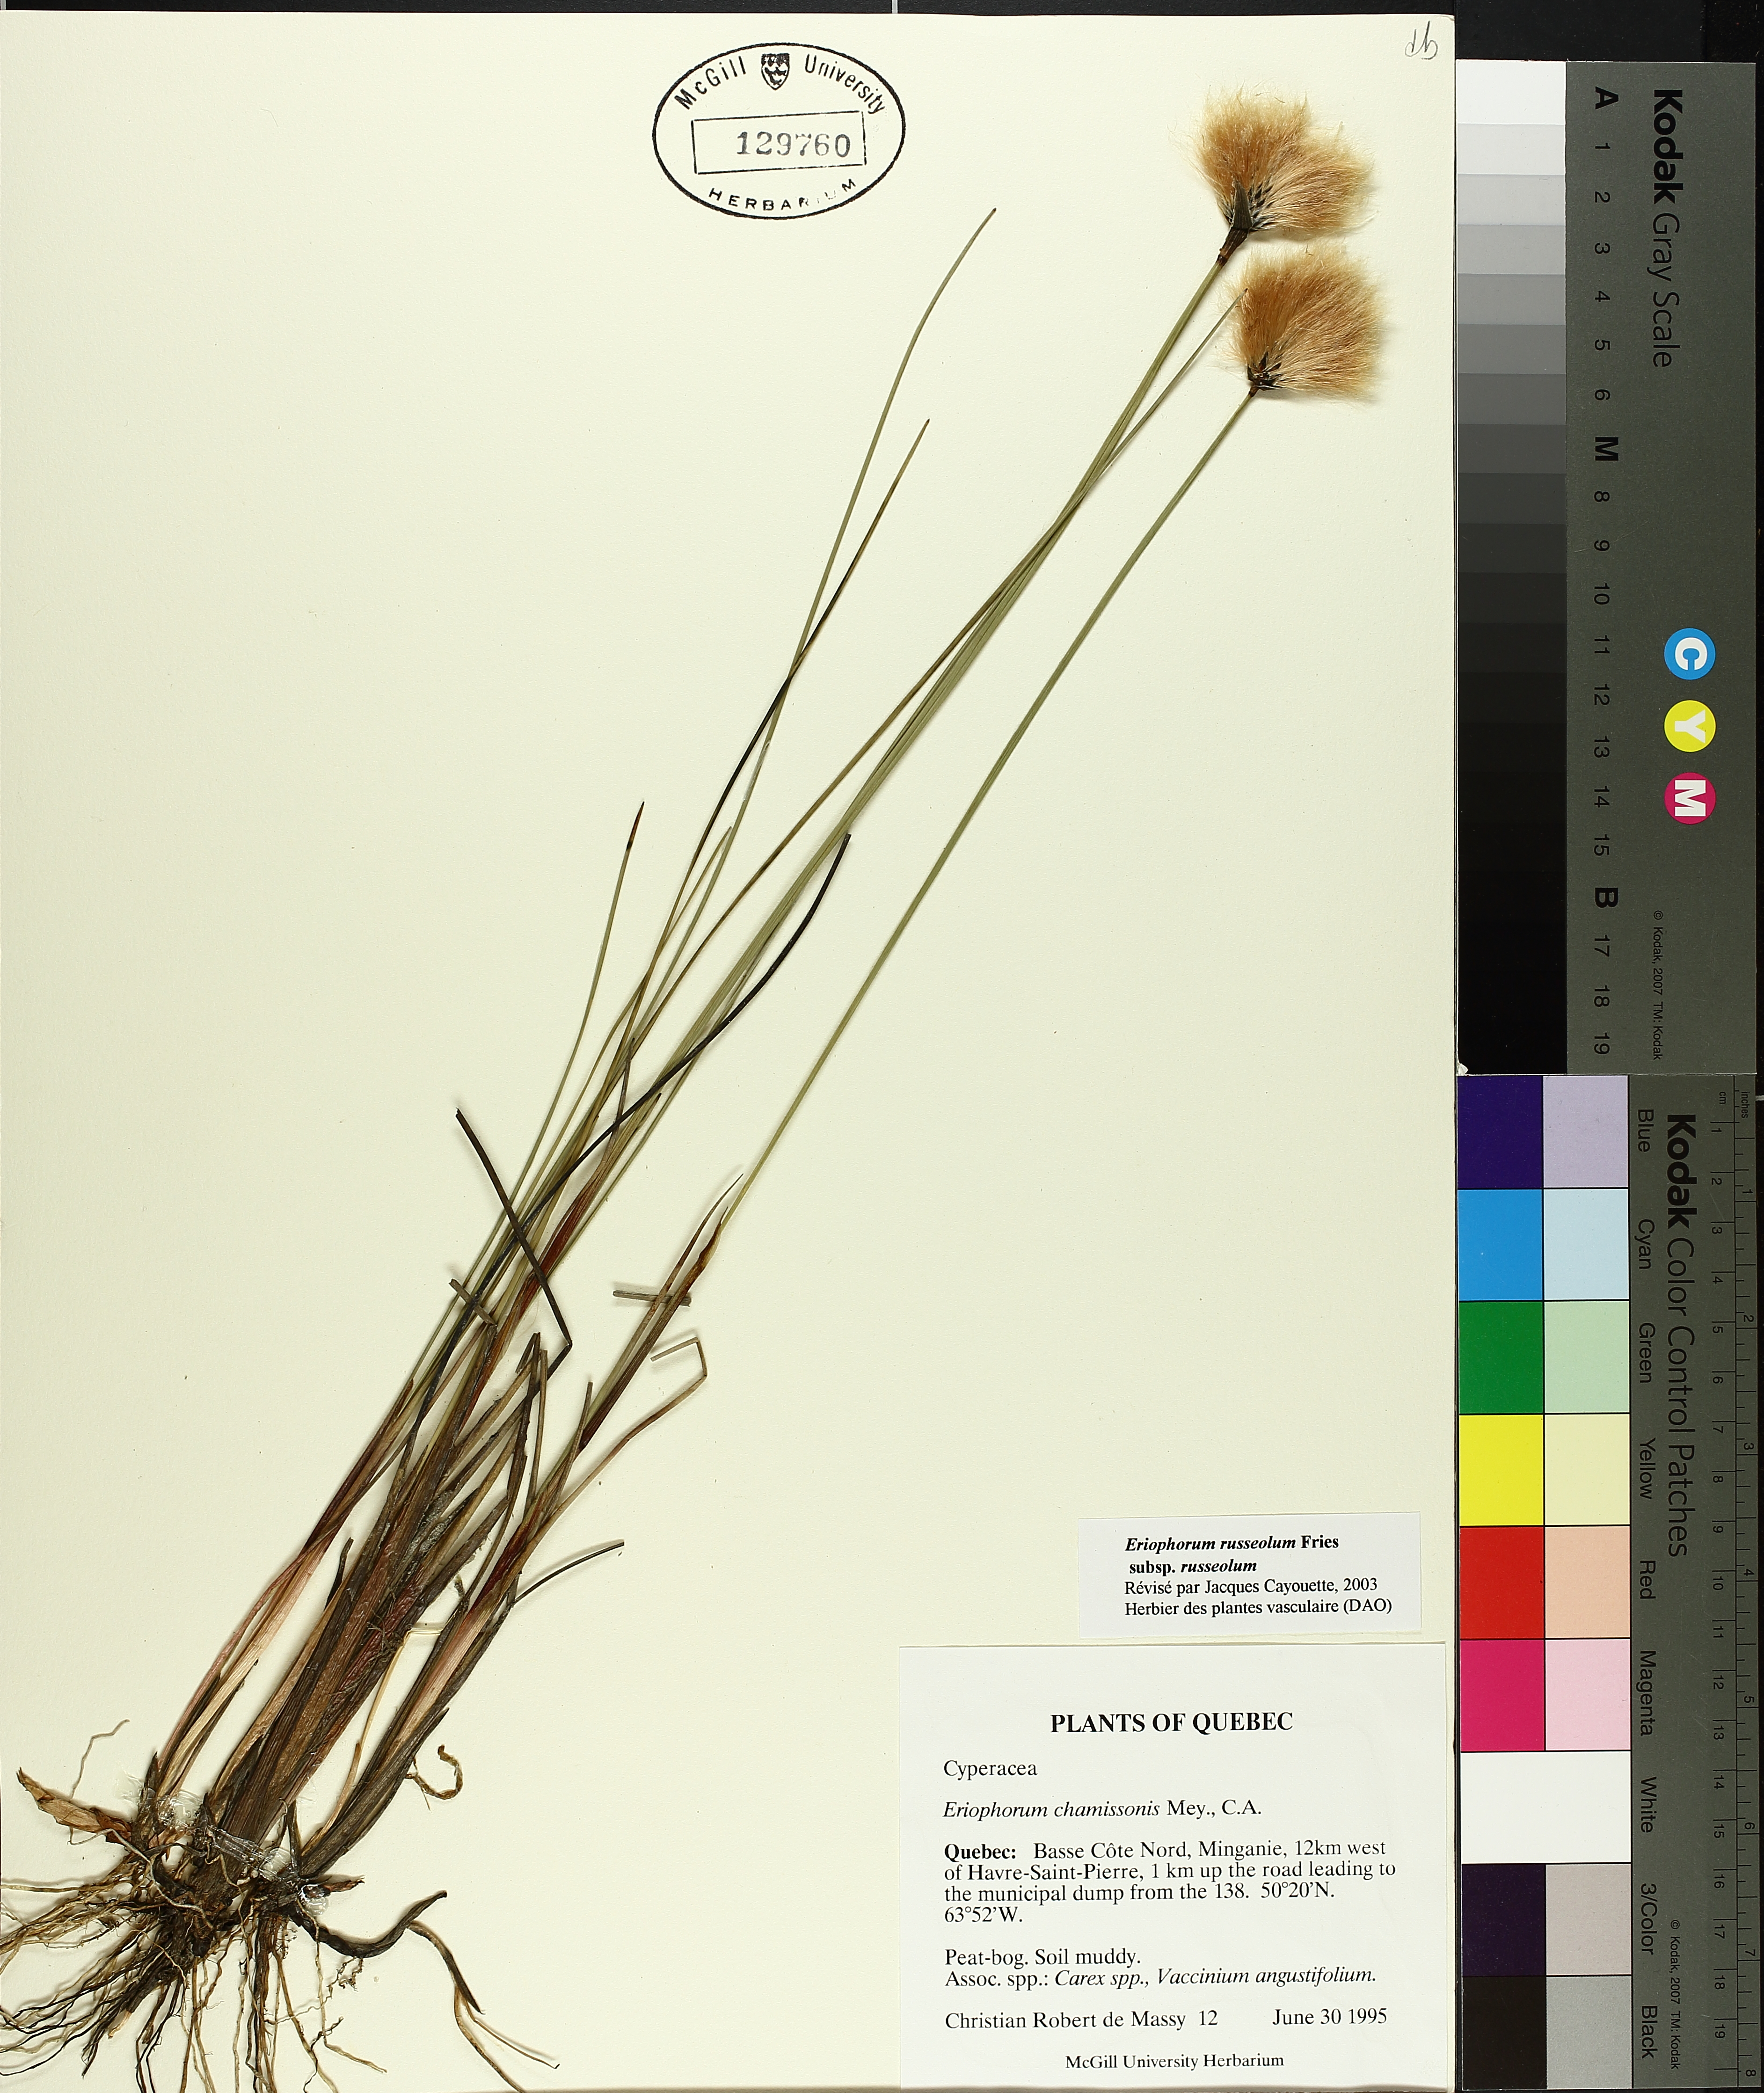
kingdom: Plantae
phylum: Tracheophyta
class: Liliopsida
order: Poales
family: Cyperaceae
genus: Eriophorum
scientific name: Eriophorum chamissonis
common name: Chamisso's cottongrass
